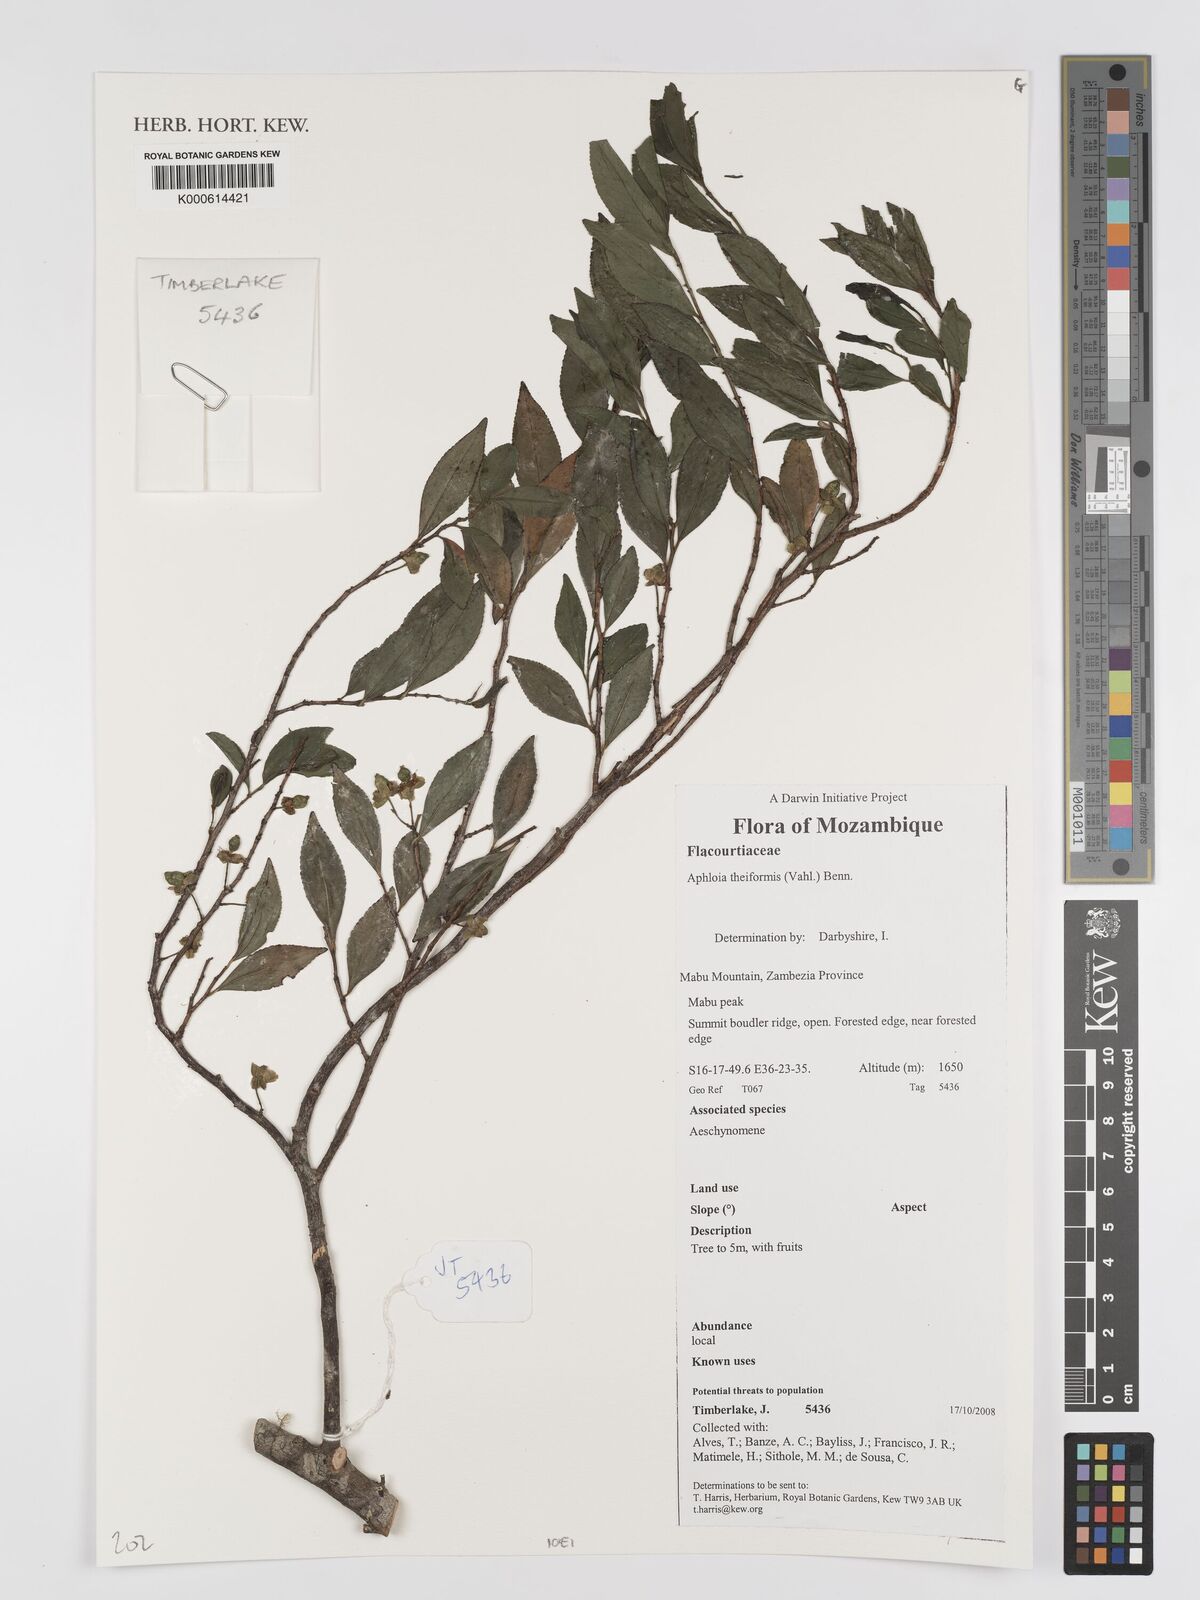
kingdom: Plantae
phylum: Tracheophyta
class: Magnoliopsida
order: Crossosomatales
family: Aphloiaceae
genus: Aphloia
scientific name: Aphloia theiformis
